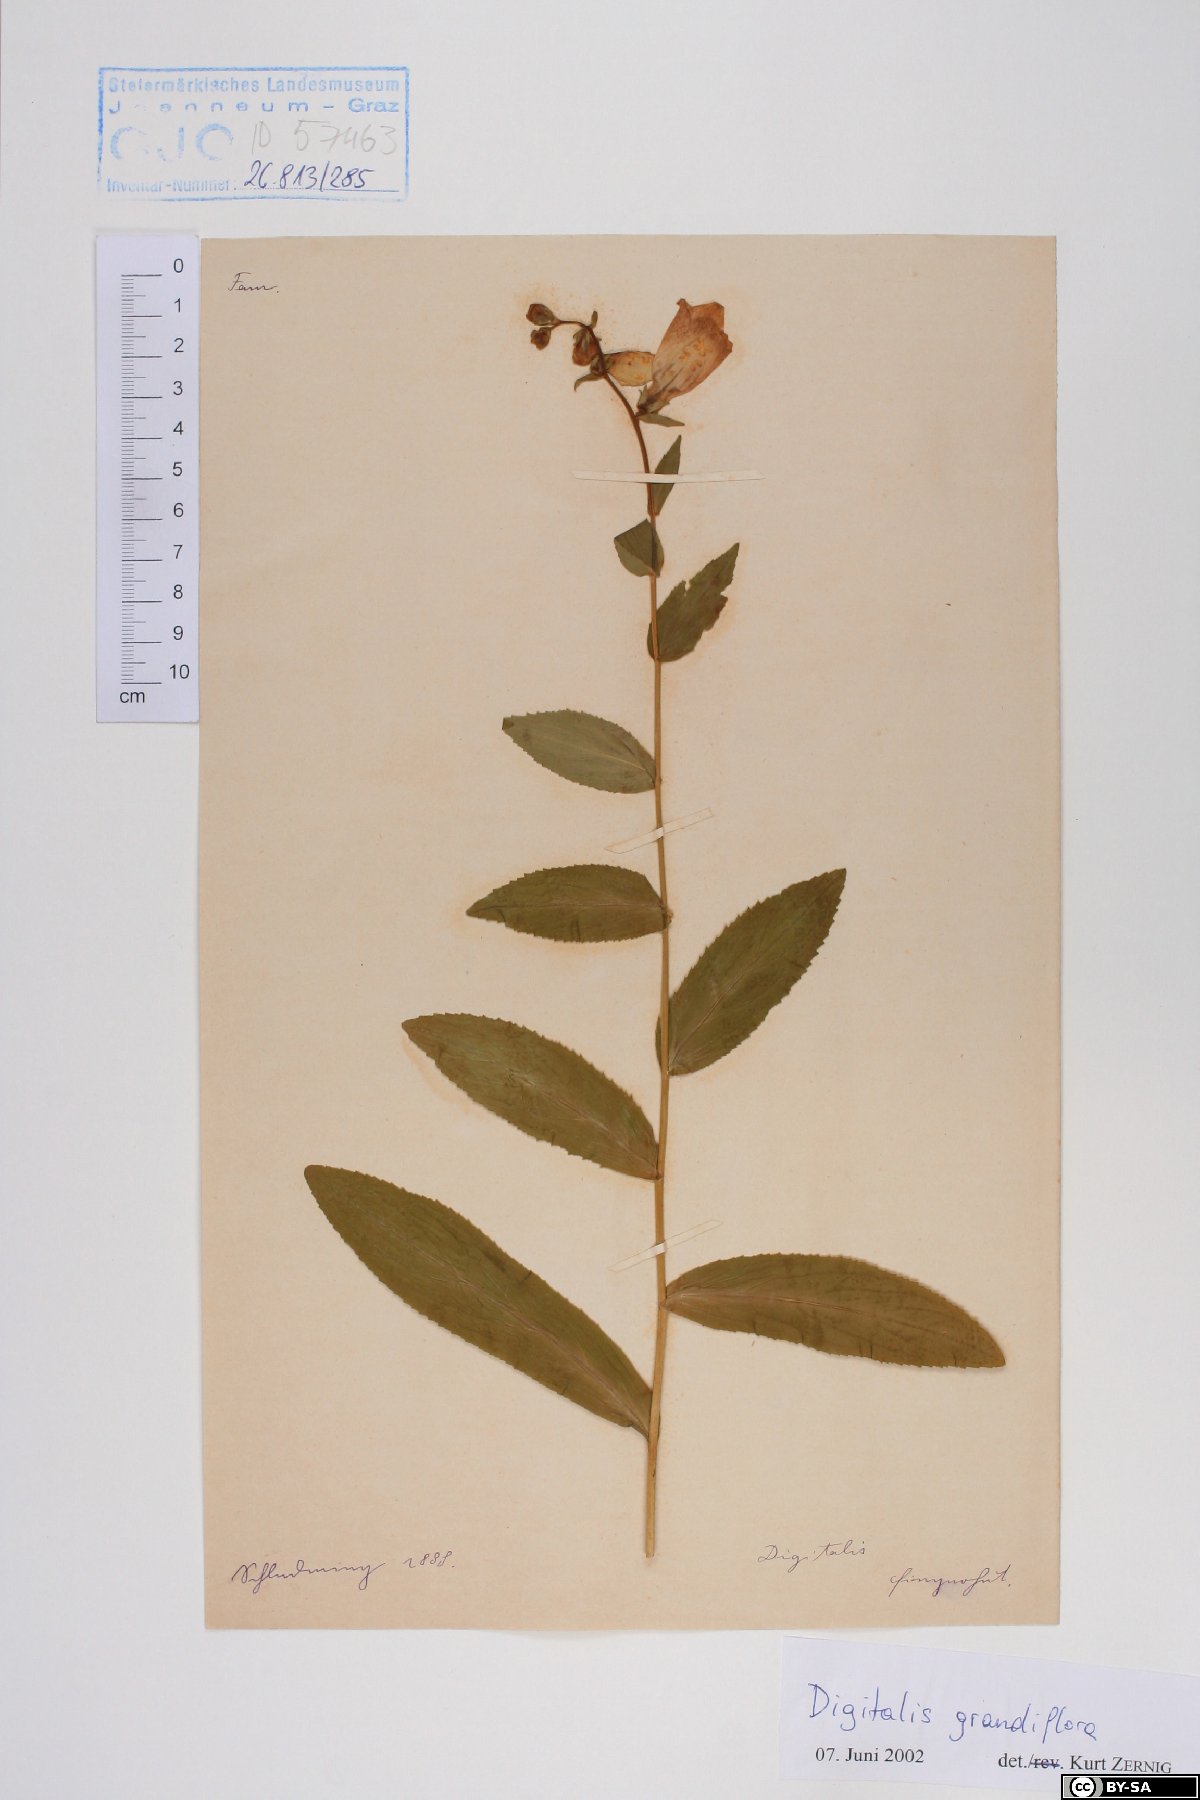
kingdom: Plantae
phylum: Tracheophyta
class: Magnoliopsida
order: Lamiales
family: Plantaginaceae
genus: Digitalis
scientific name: Digitalis grandiflora
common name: Yellow foxglove
